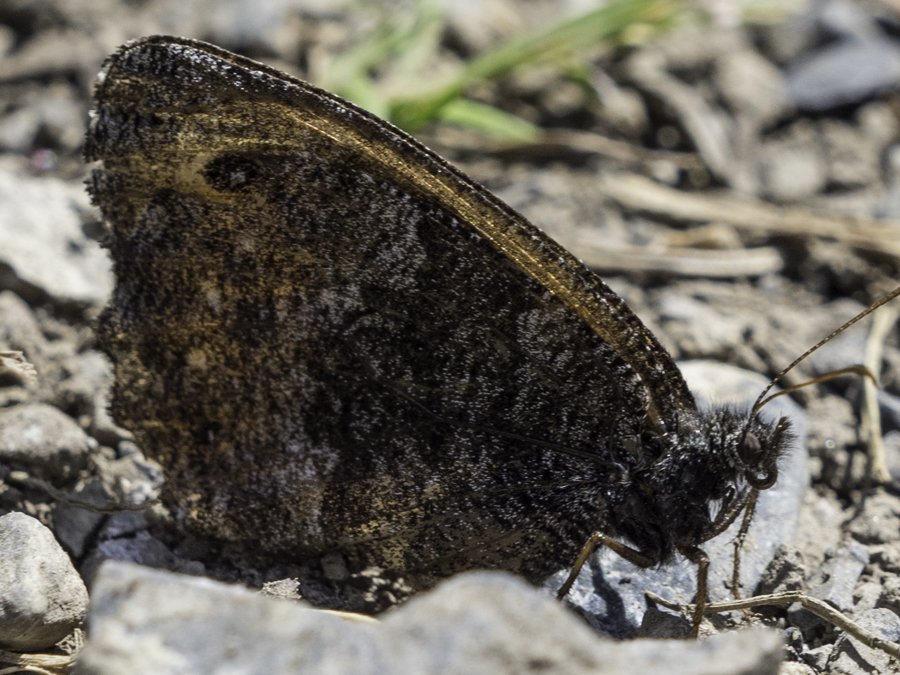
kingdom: Animalia
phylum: Arthropoda
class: Insecta
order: Lepidoptera
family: Nymphalidae
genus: Oeneis
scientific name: Oeneis jutta
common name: Jutta Arctic
